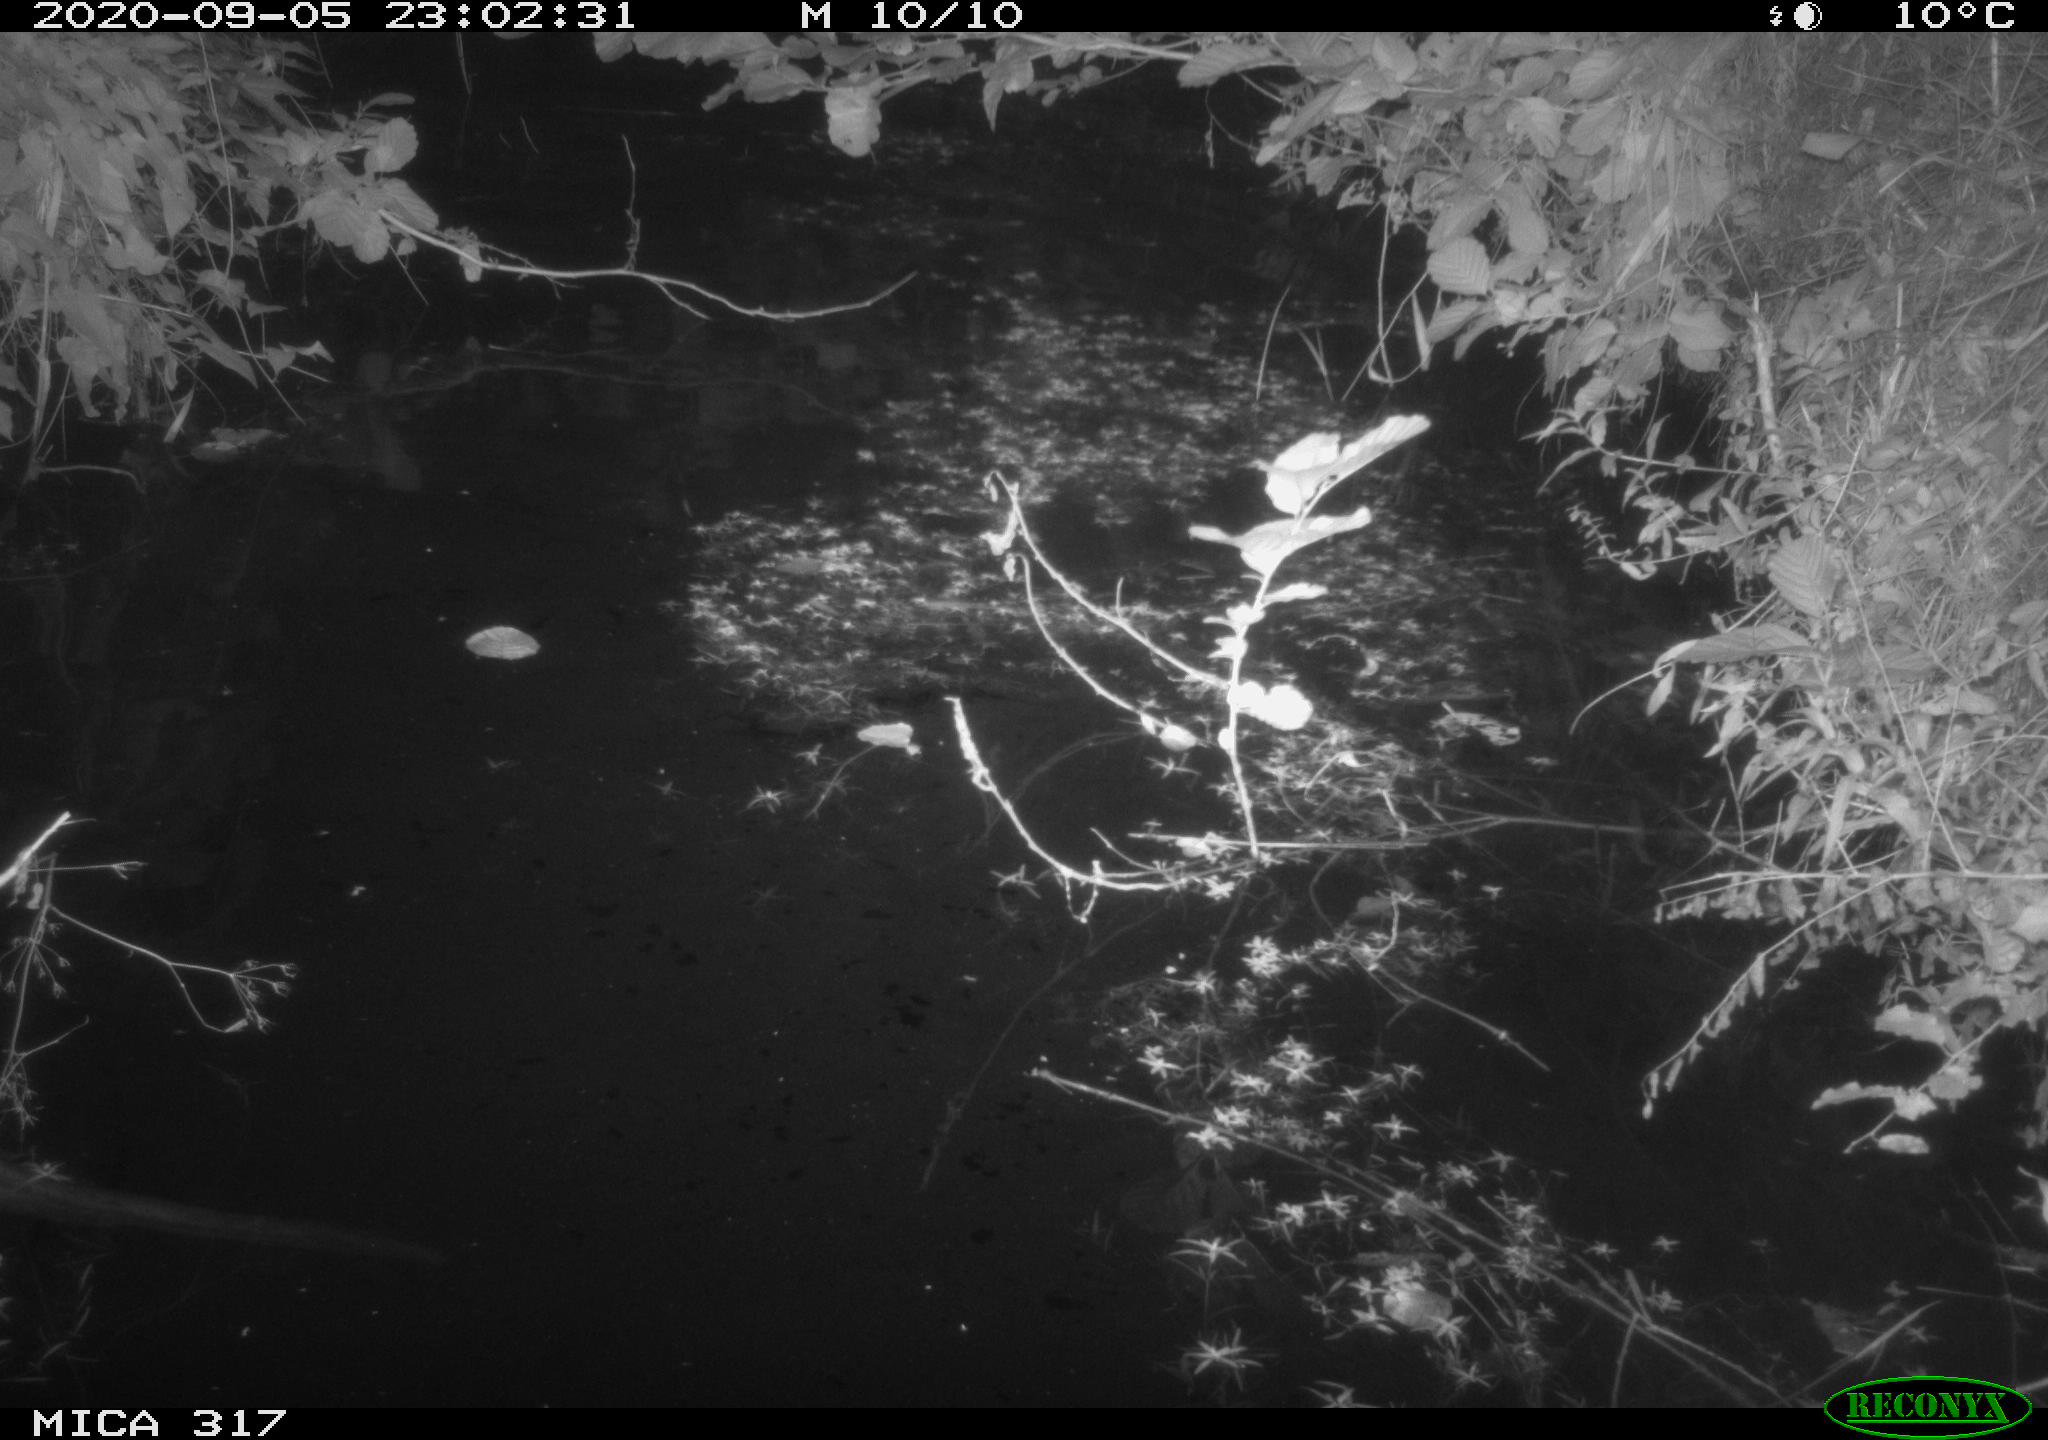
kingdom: Animalia
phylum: Chordata
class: Aves
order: Anseriformes
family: Anatidae
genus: Anas
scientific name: Anas platyrhynchos
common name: Mallard
